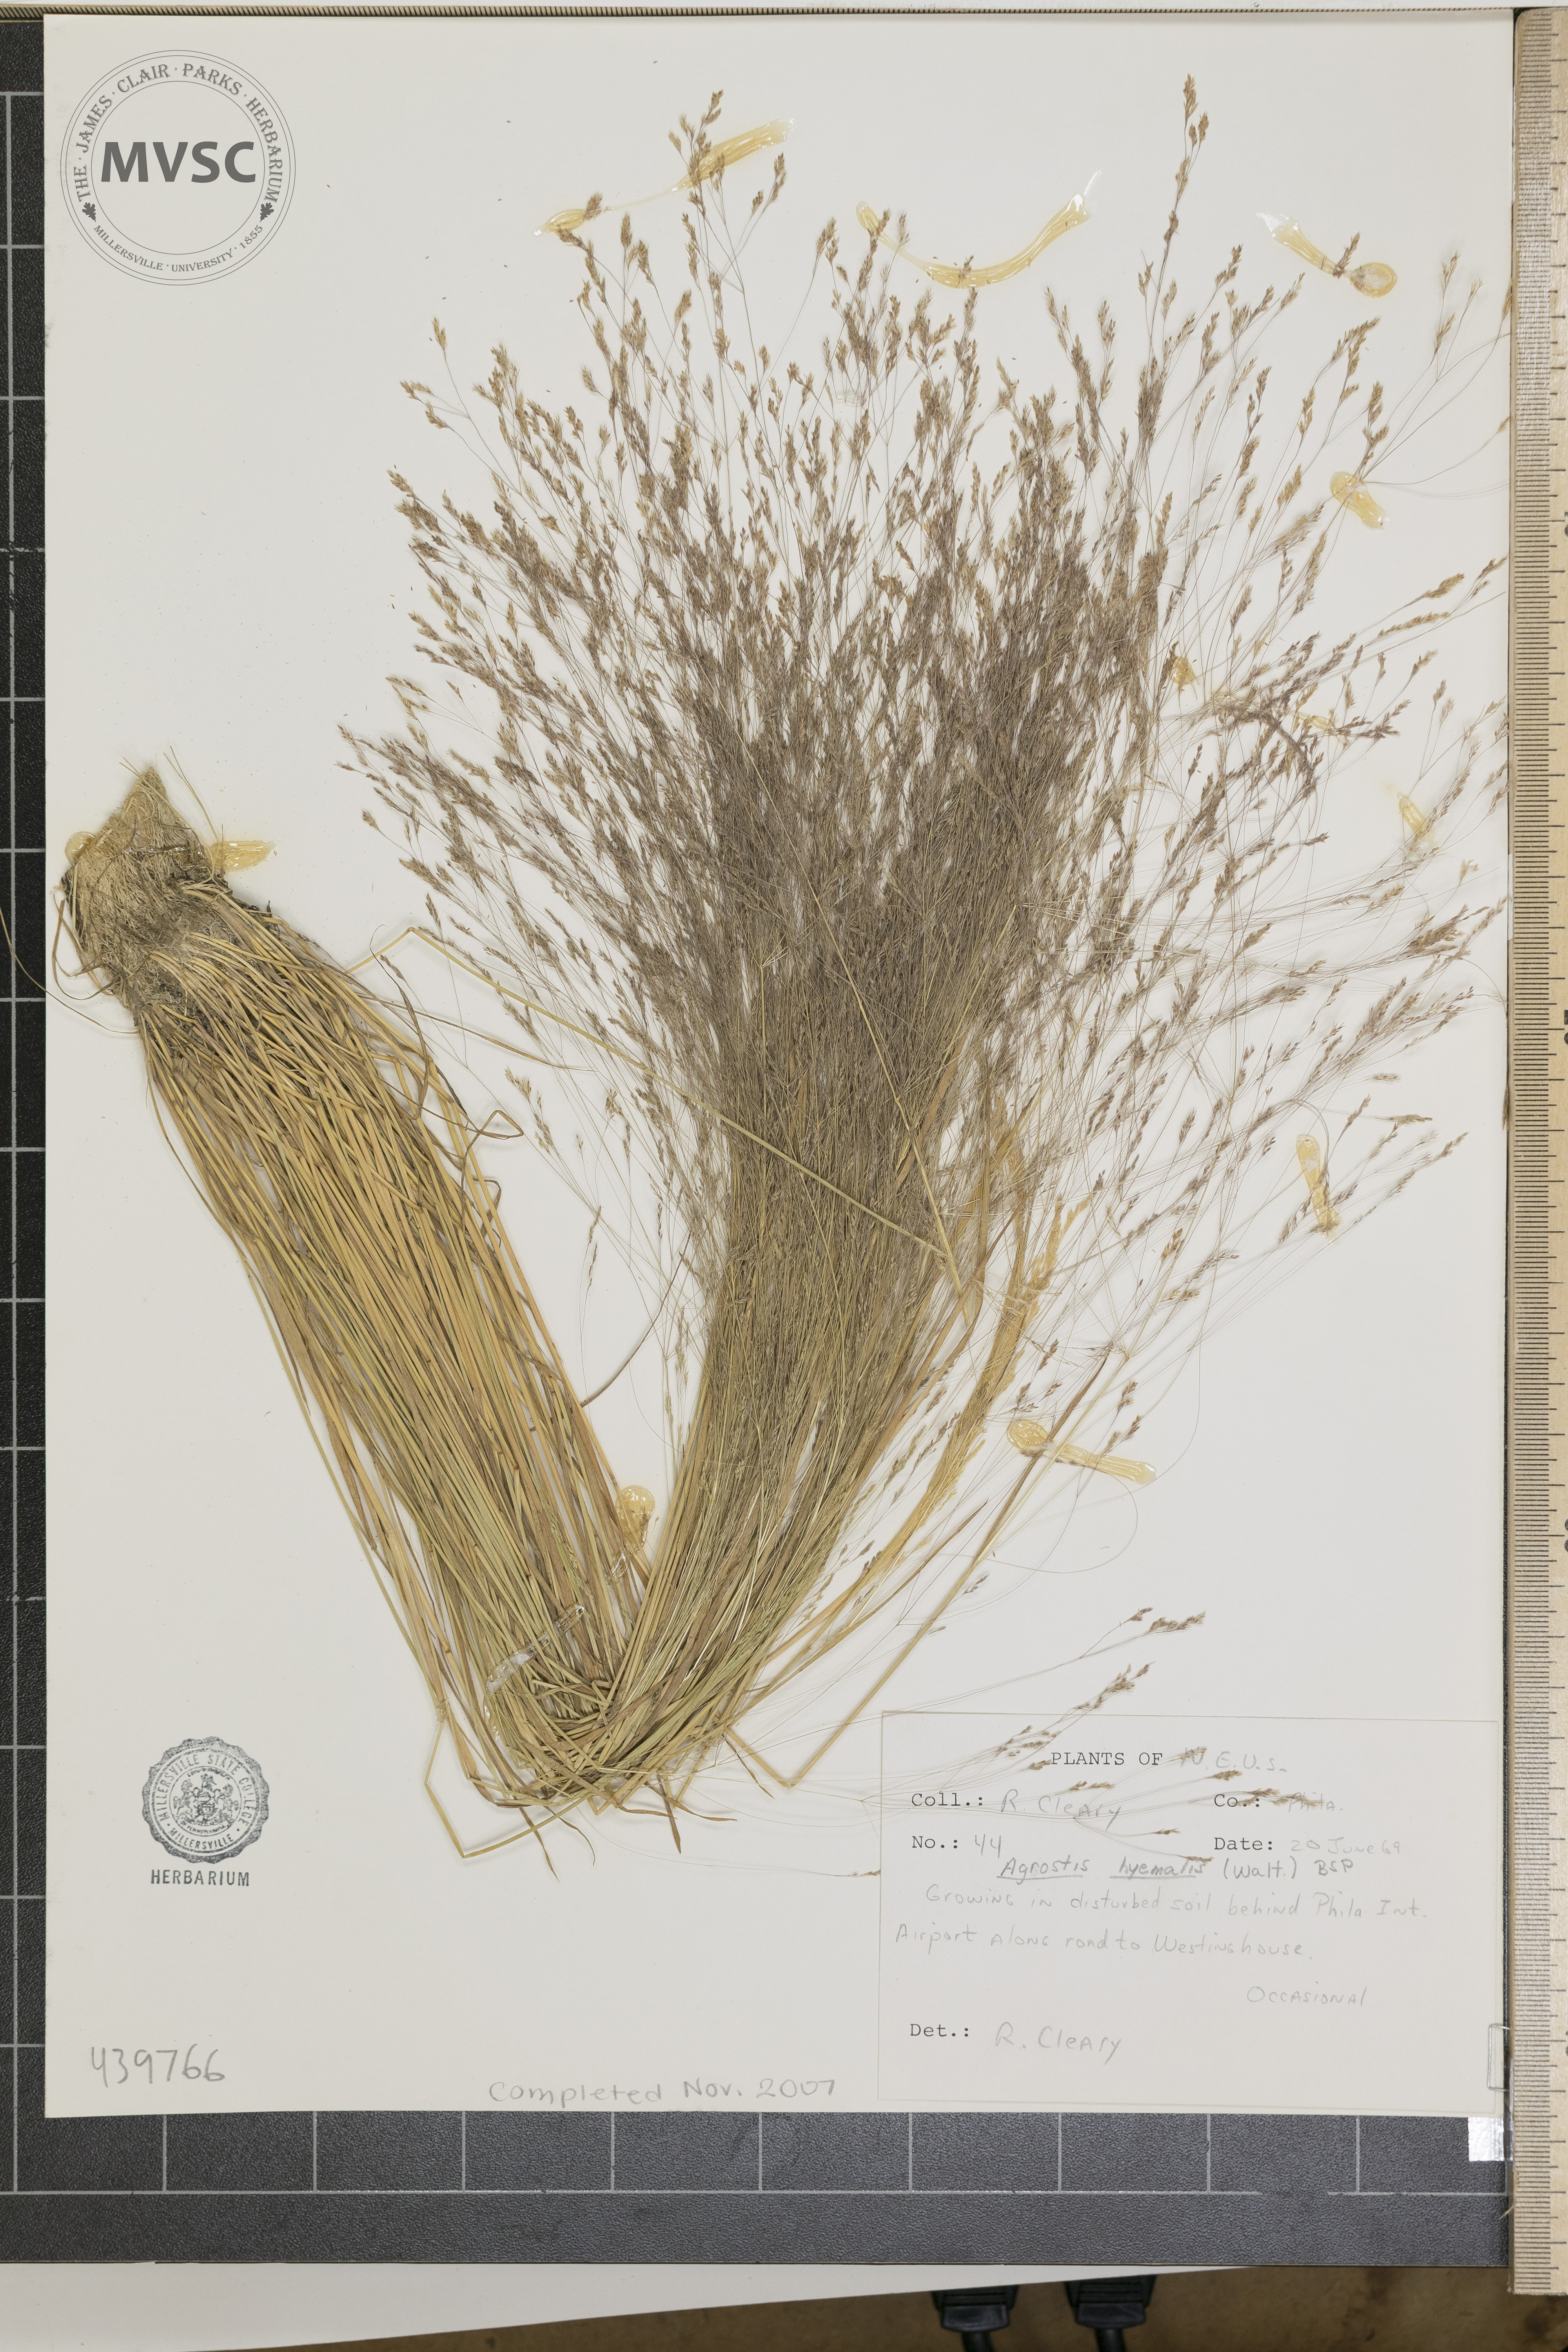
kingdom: Plantae
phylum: Tracheophyta
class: Liliopsida
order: Poales
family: Poaceae
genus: Agrostis
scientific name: Agrostis hyemalis
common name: Small bent
